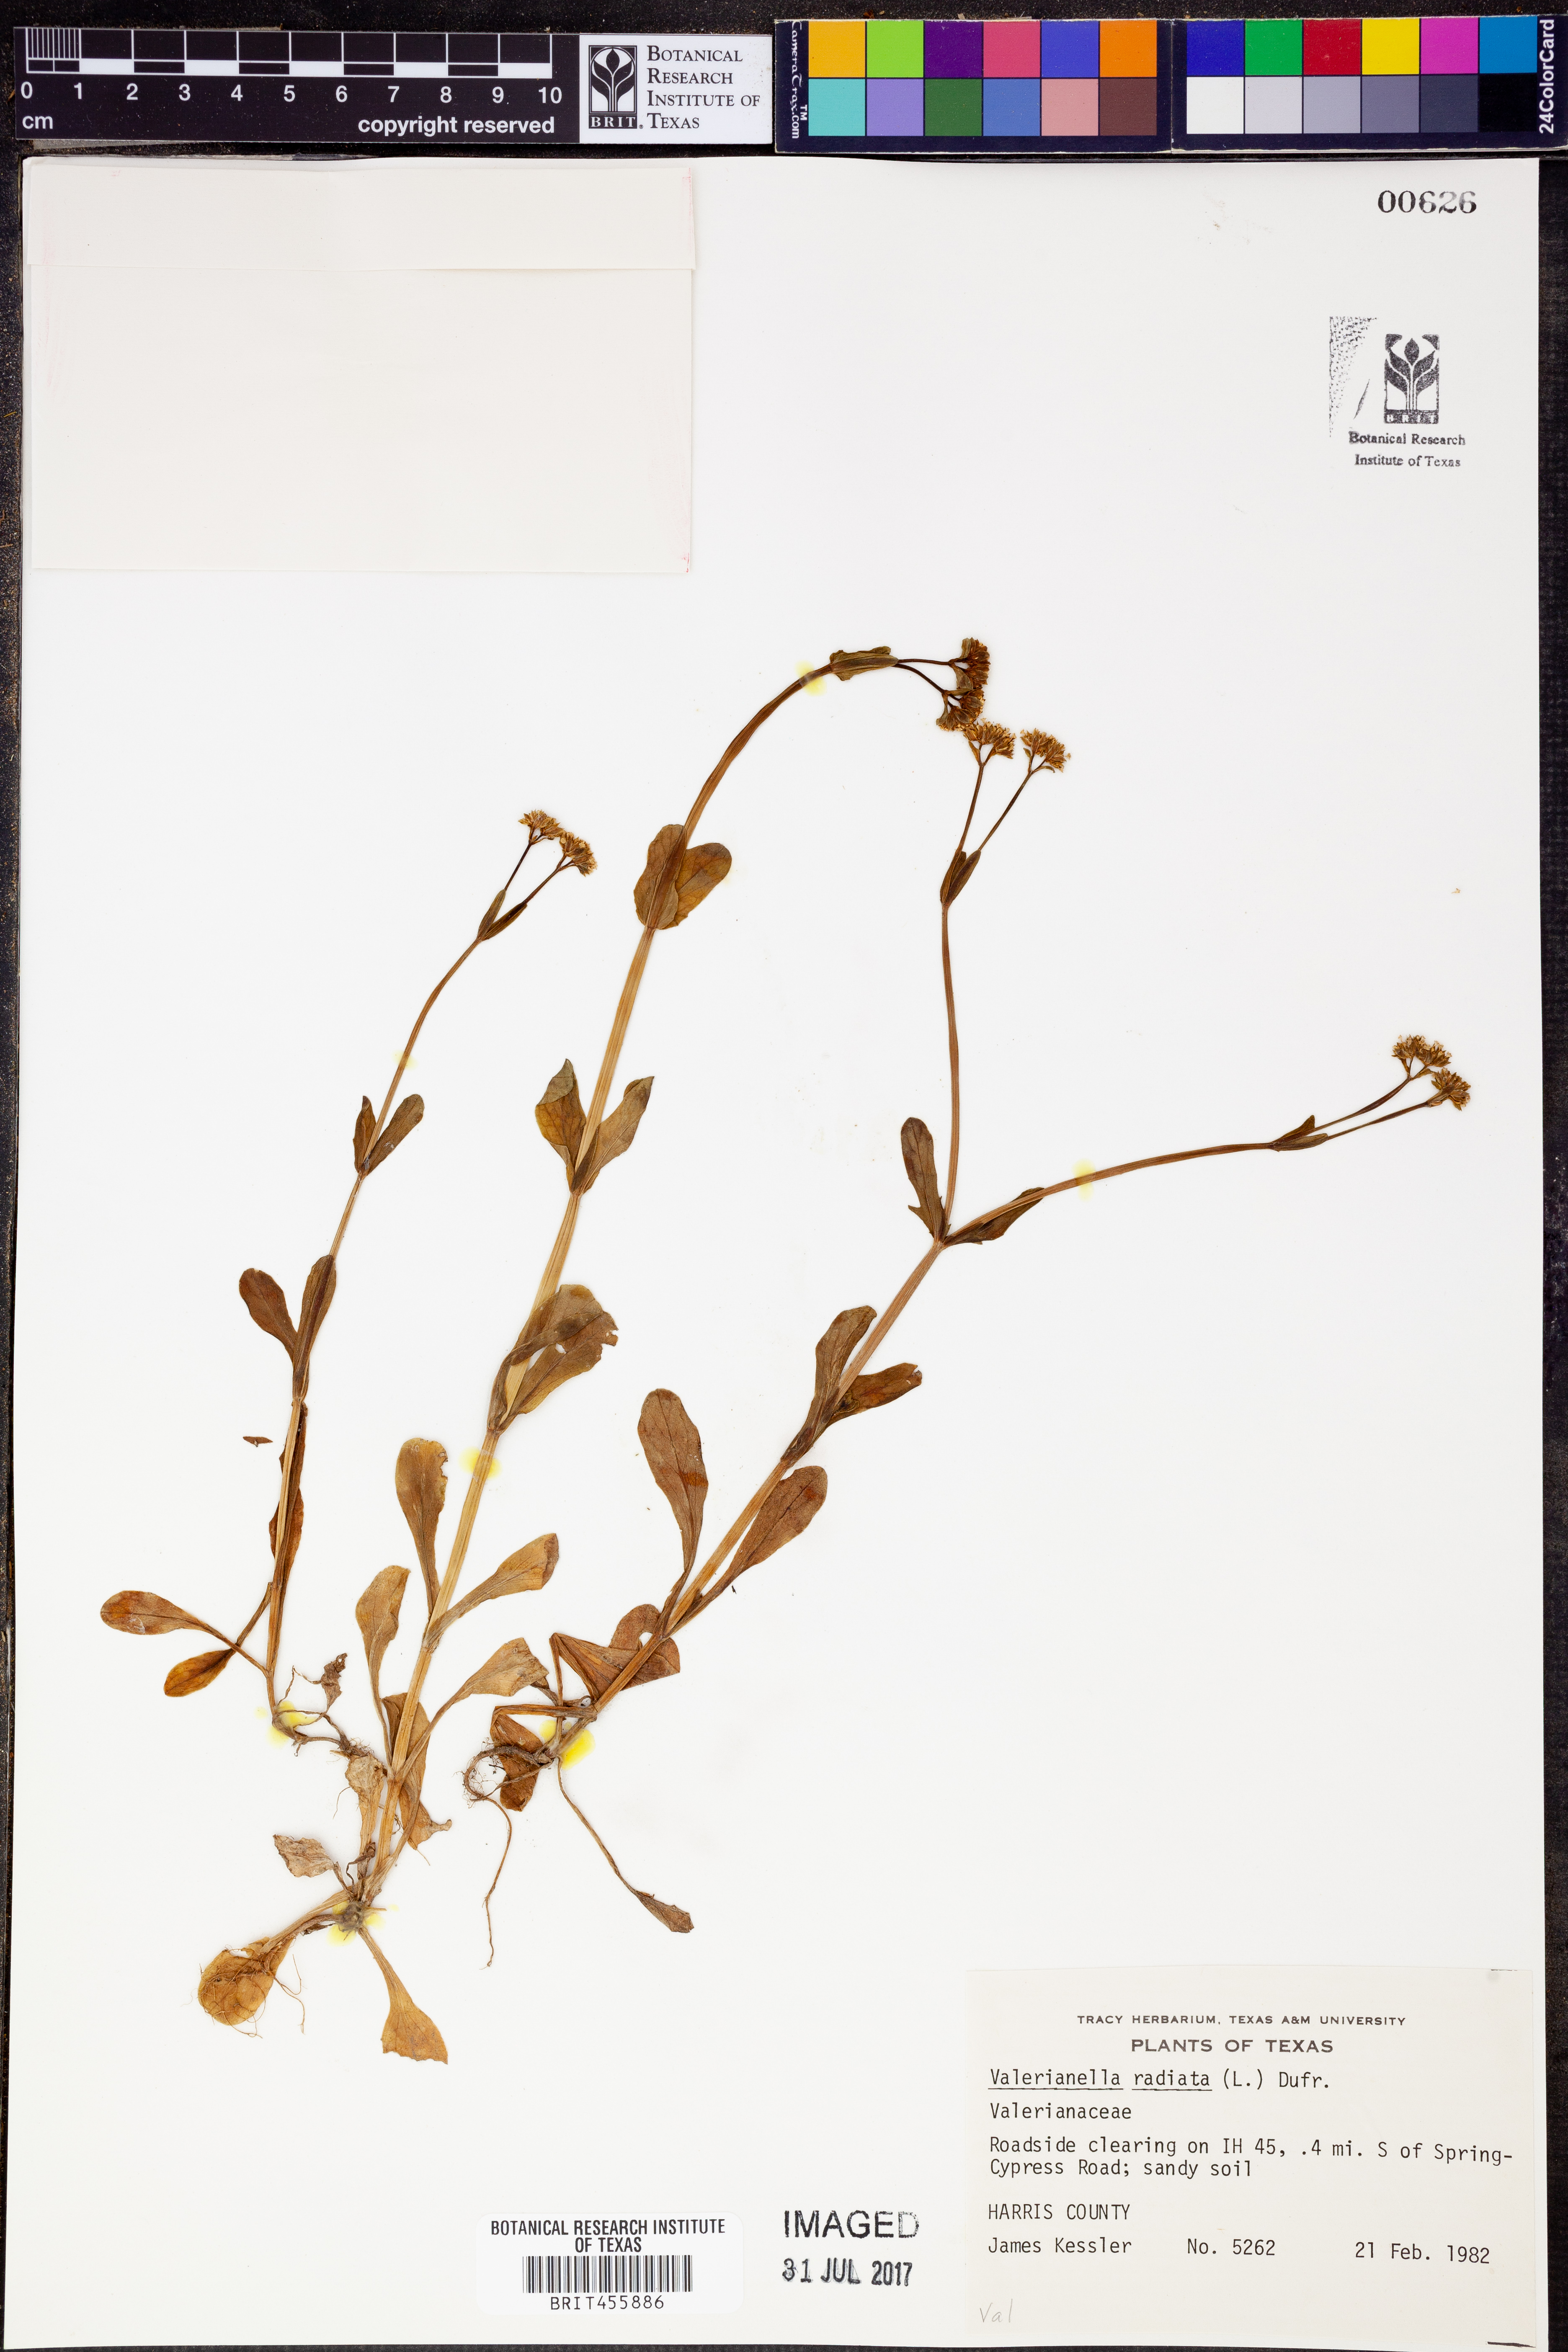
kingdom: Plantae
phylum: Tracheophyta
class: Magnoliopsida
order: Dipsacales
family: Caprifoliaceae
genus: Valerianella
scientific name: Valerianella radiata
